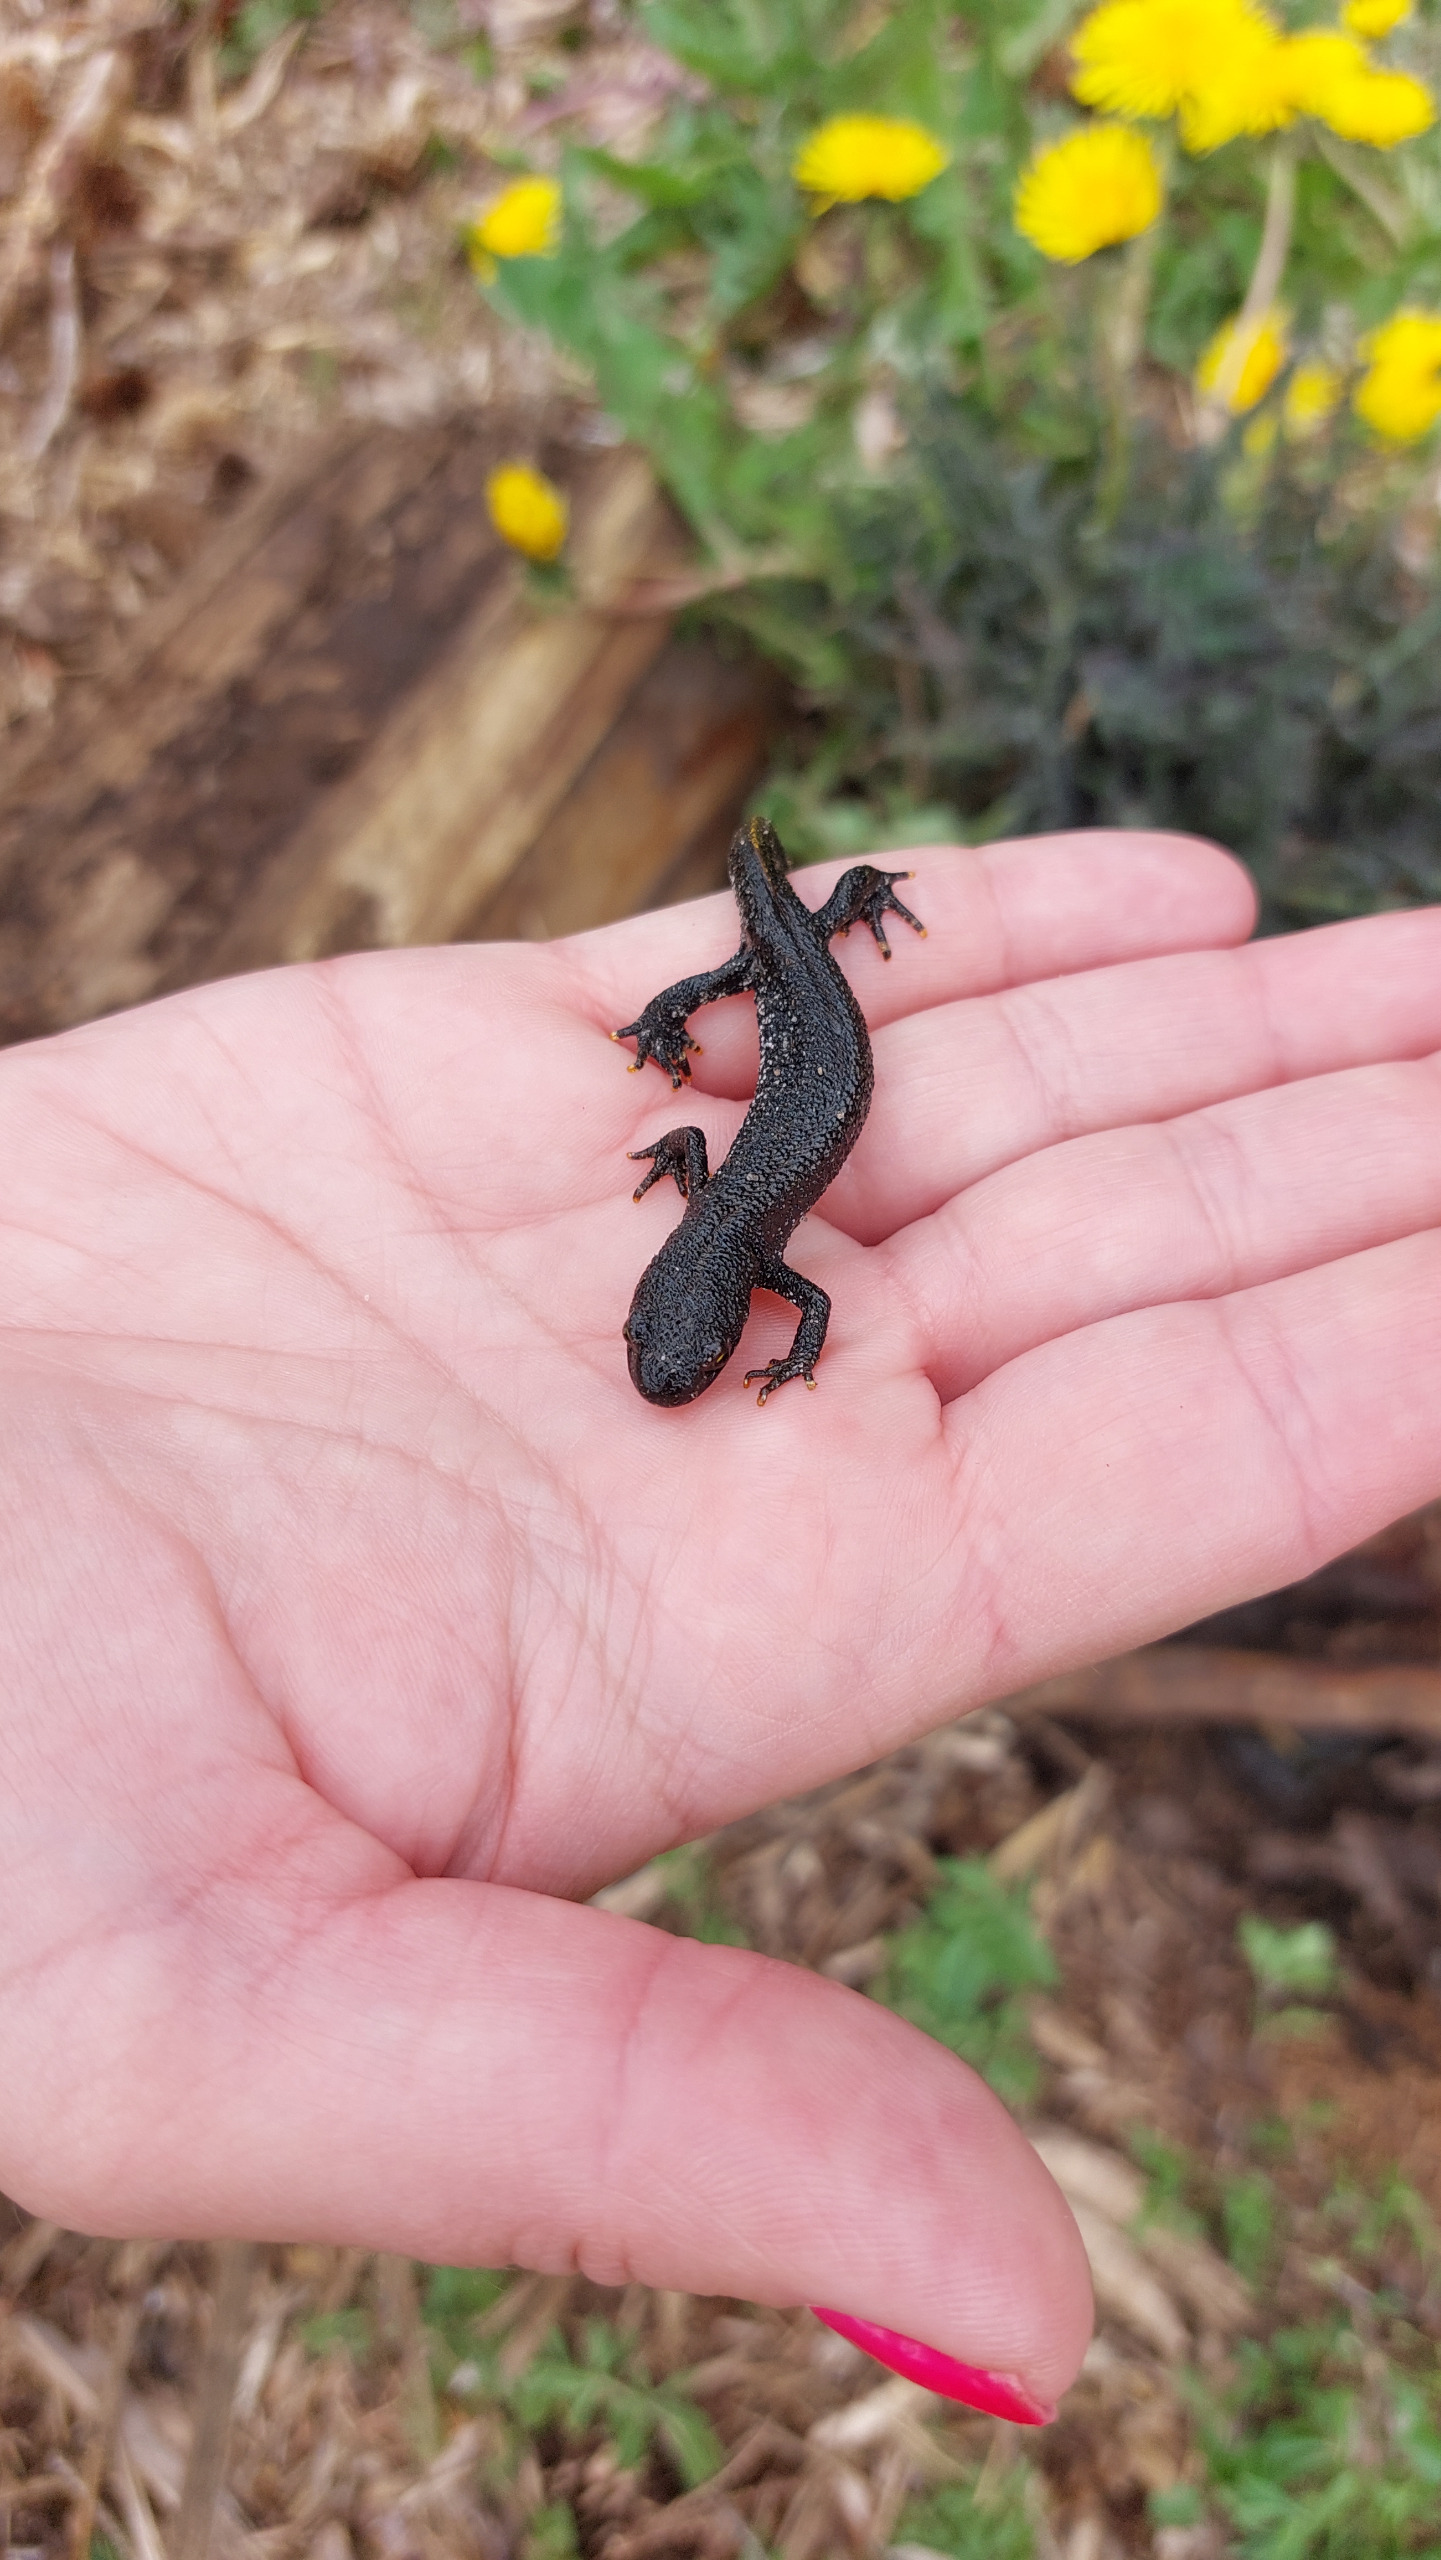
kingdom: Animalia
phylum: Chordata
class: Amphibia
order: Caudata
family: Salamandridae
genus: Triturus
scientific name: Triturus cristatus
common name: Stor vandsalamander
